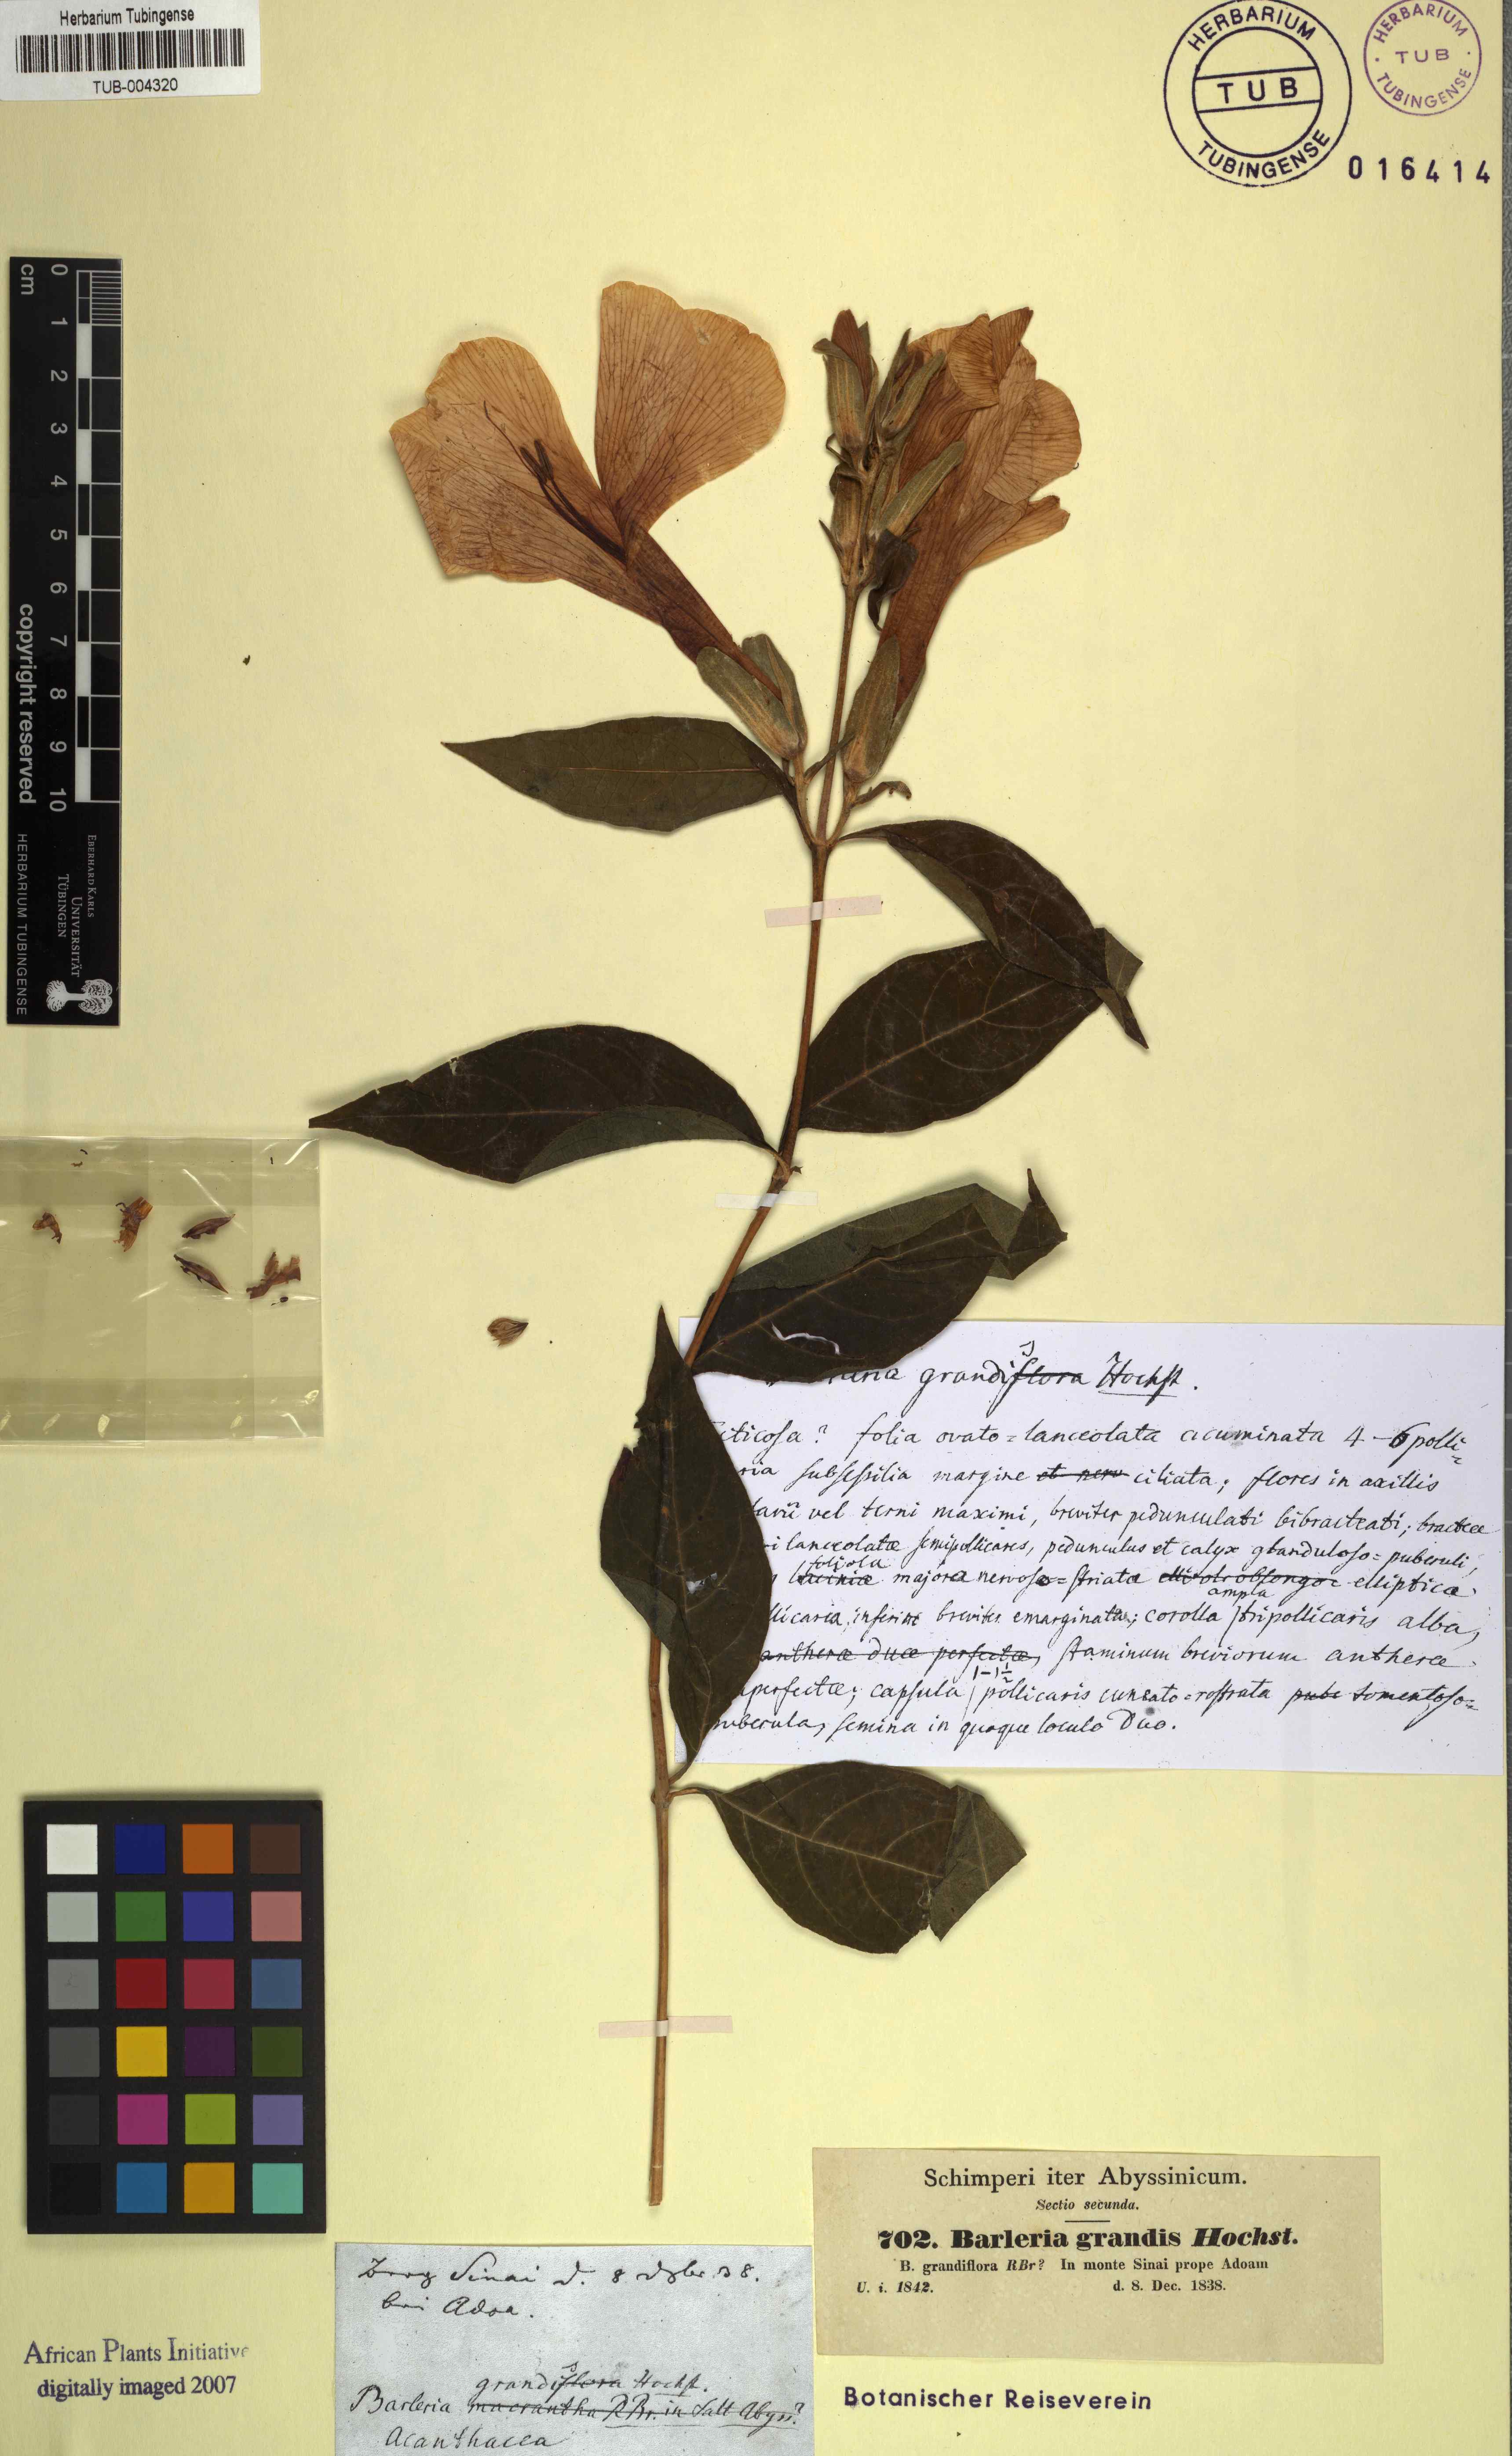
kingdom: Plantae
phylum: Tracheophyta
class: Magnoliopsida
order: Lamiales
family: Acanthaceae
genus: Barleria
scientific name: Barleria grandis
